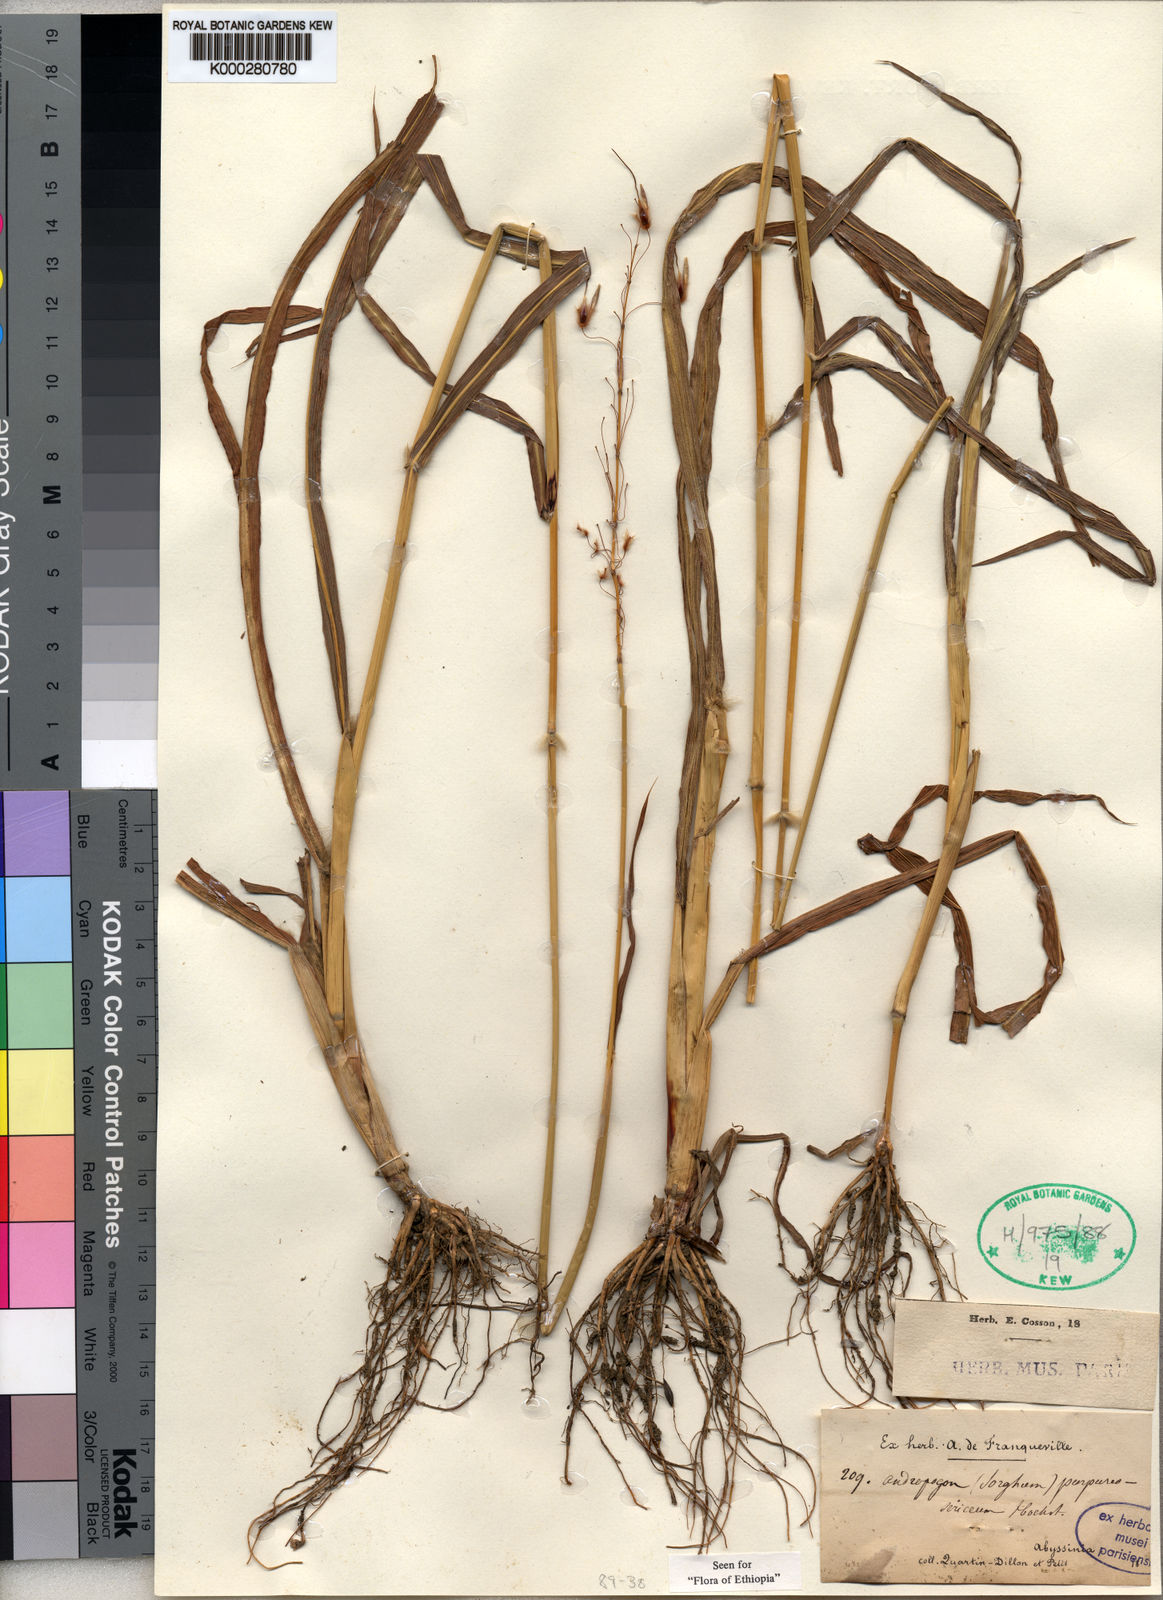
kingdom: Plantae
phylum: Tracheophyta
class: Liliopsida
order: Poales
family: Poaceae
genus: Sarga
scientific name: Sarga purpureosericea
